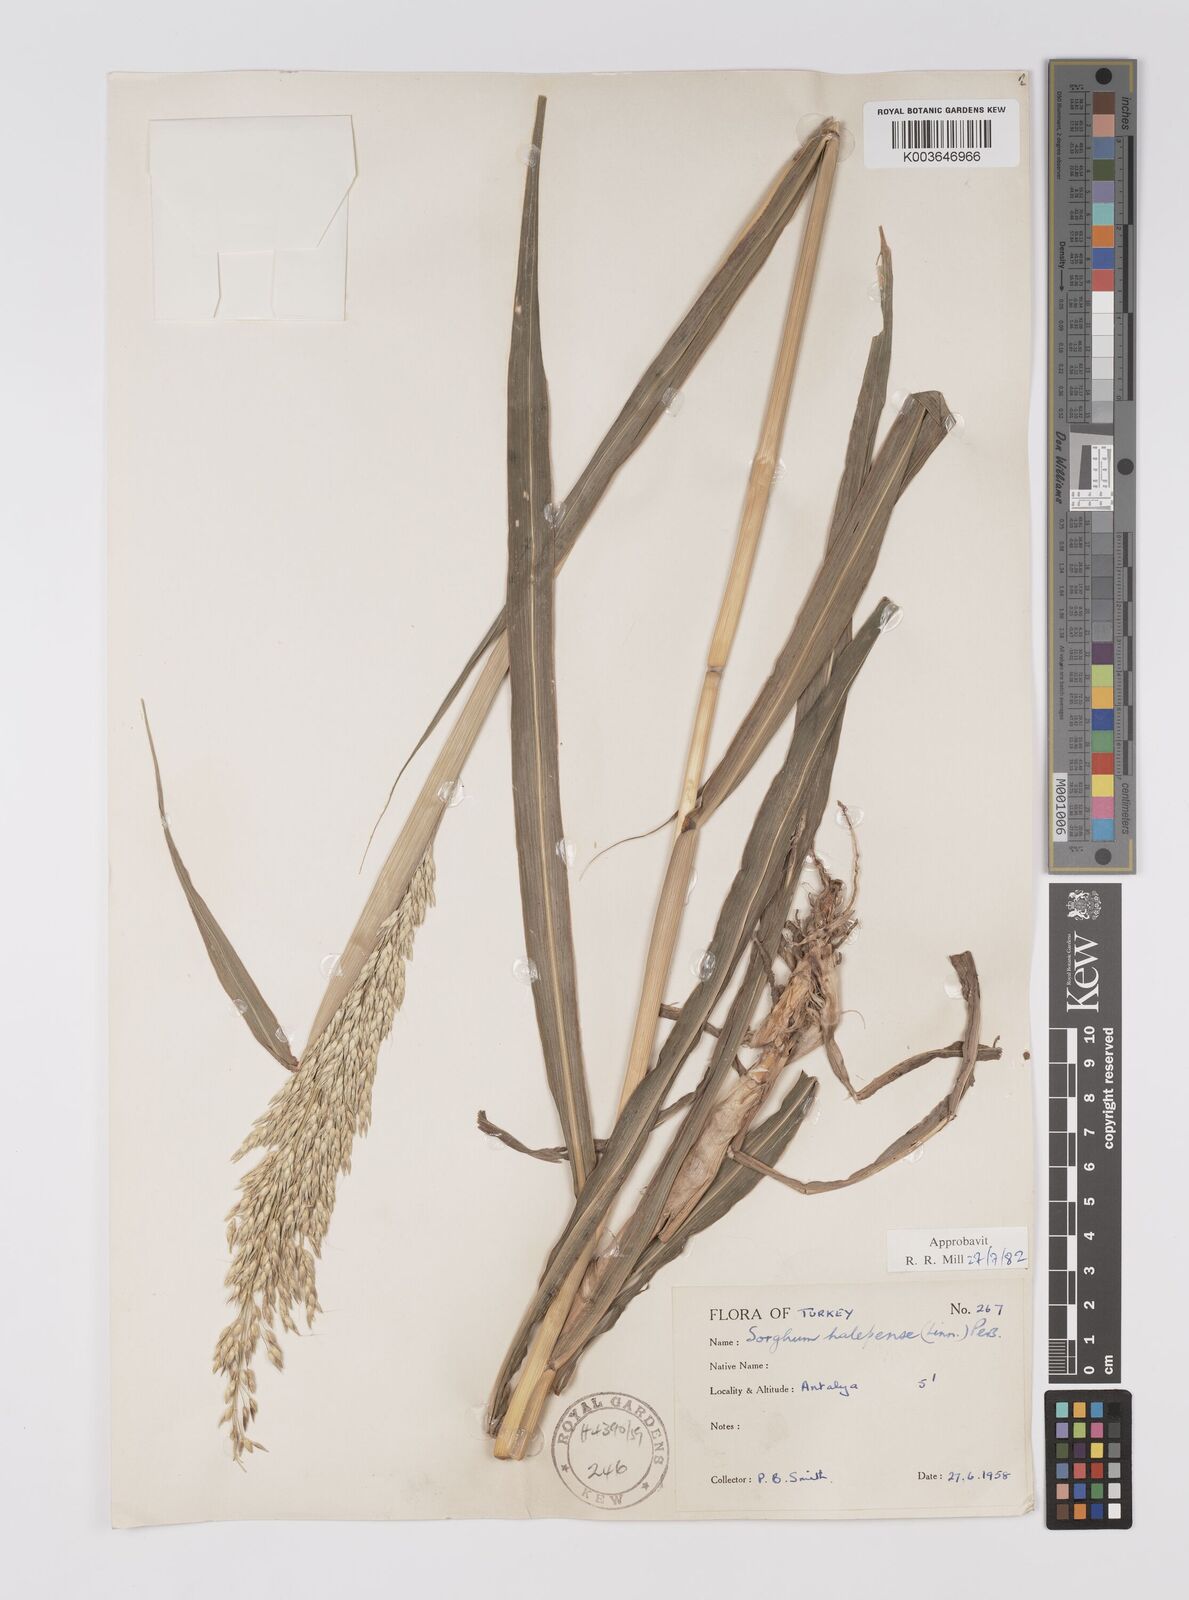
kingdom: Plantae
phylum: Tracheophyta
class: Liliopsida
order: Poales
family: Poaceae
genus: Sorghum
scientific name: Sorghum halepense
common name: Johnson-grass
